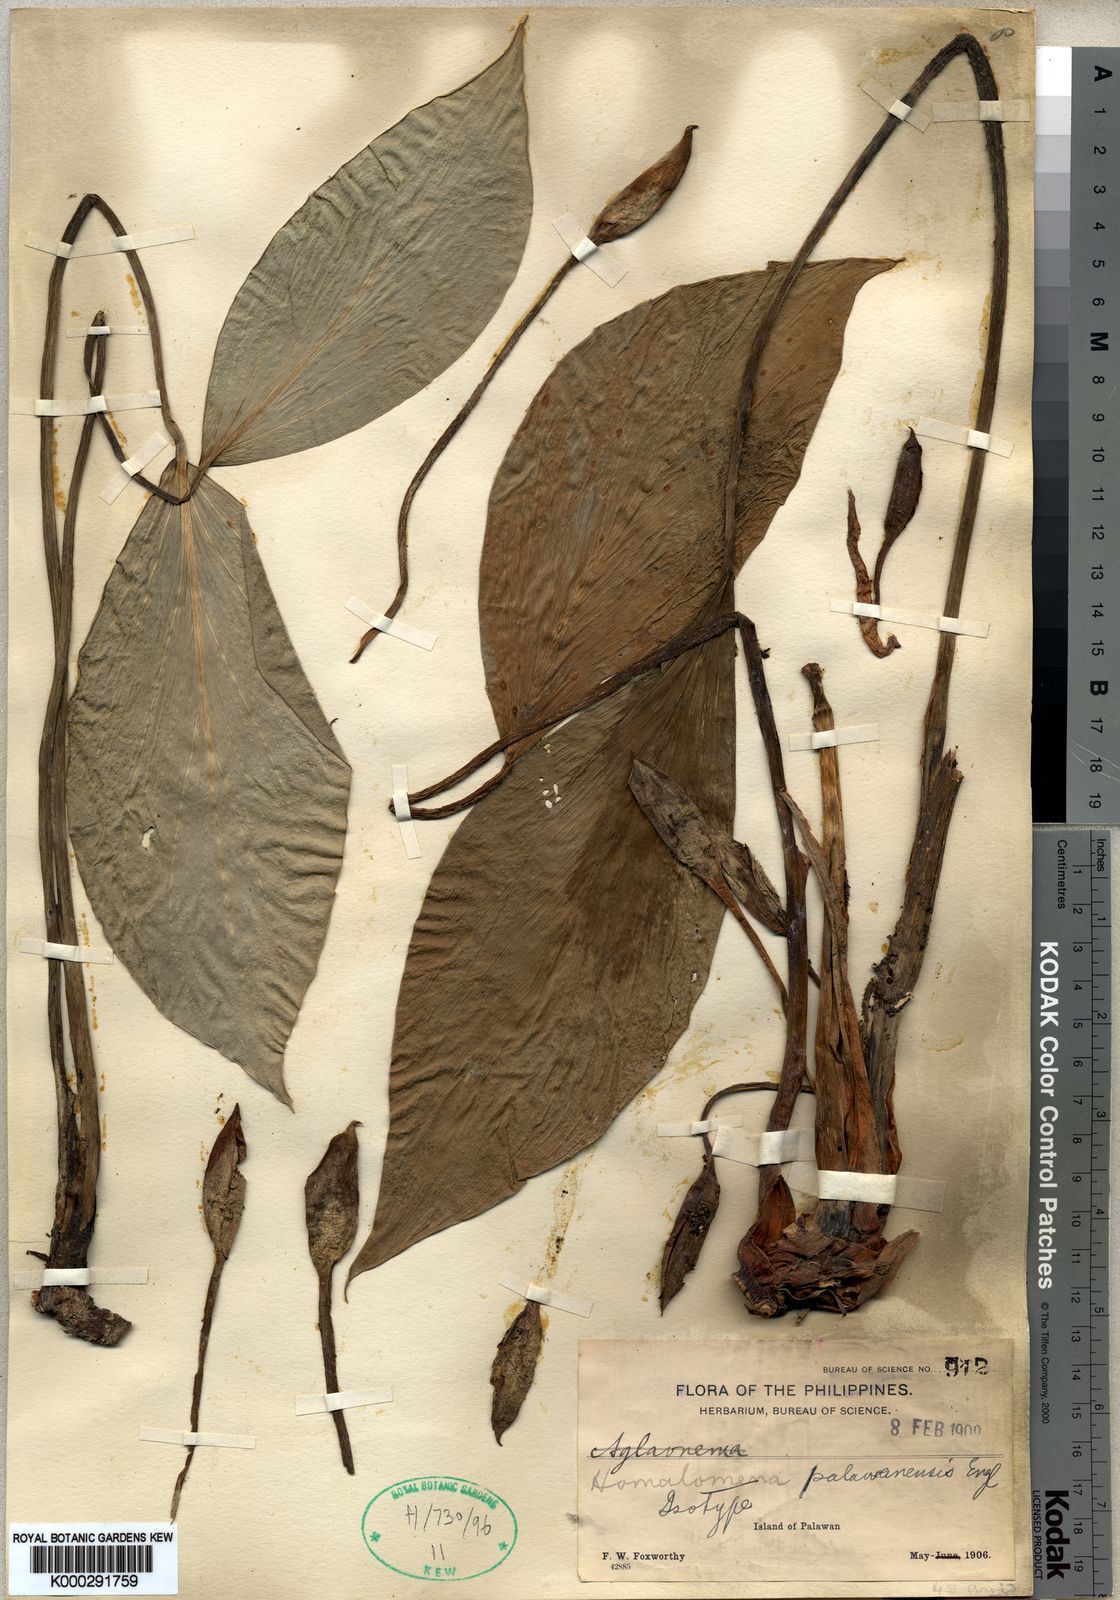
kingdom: Plantae
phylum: Tracheophyta
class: Liliopsida
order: Alismatales
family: Araceae
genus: Homalomena
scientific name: Homalomena palawanensis
